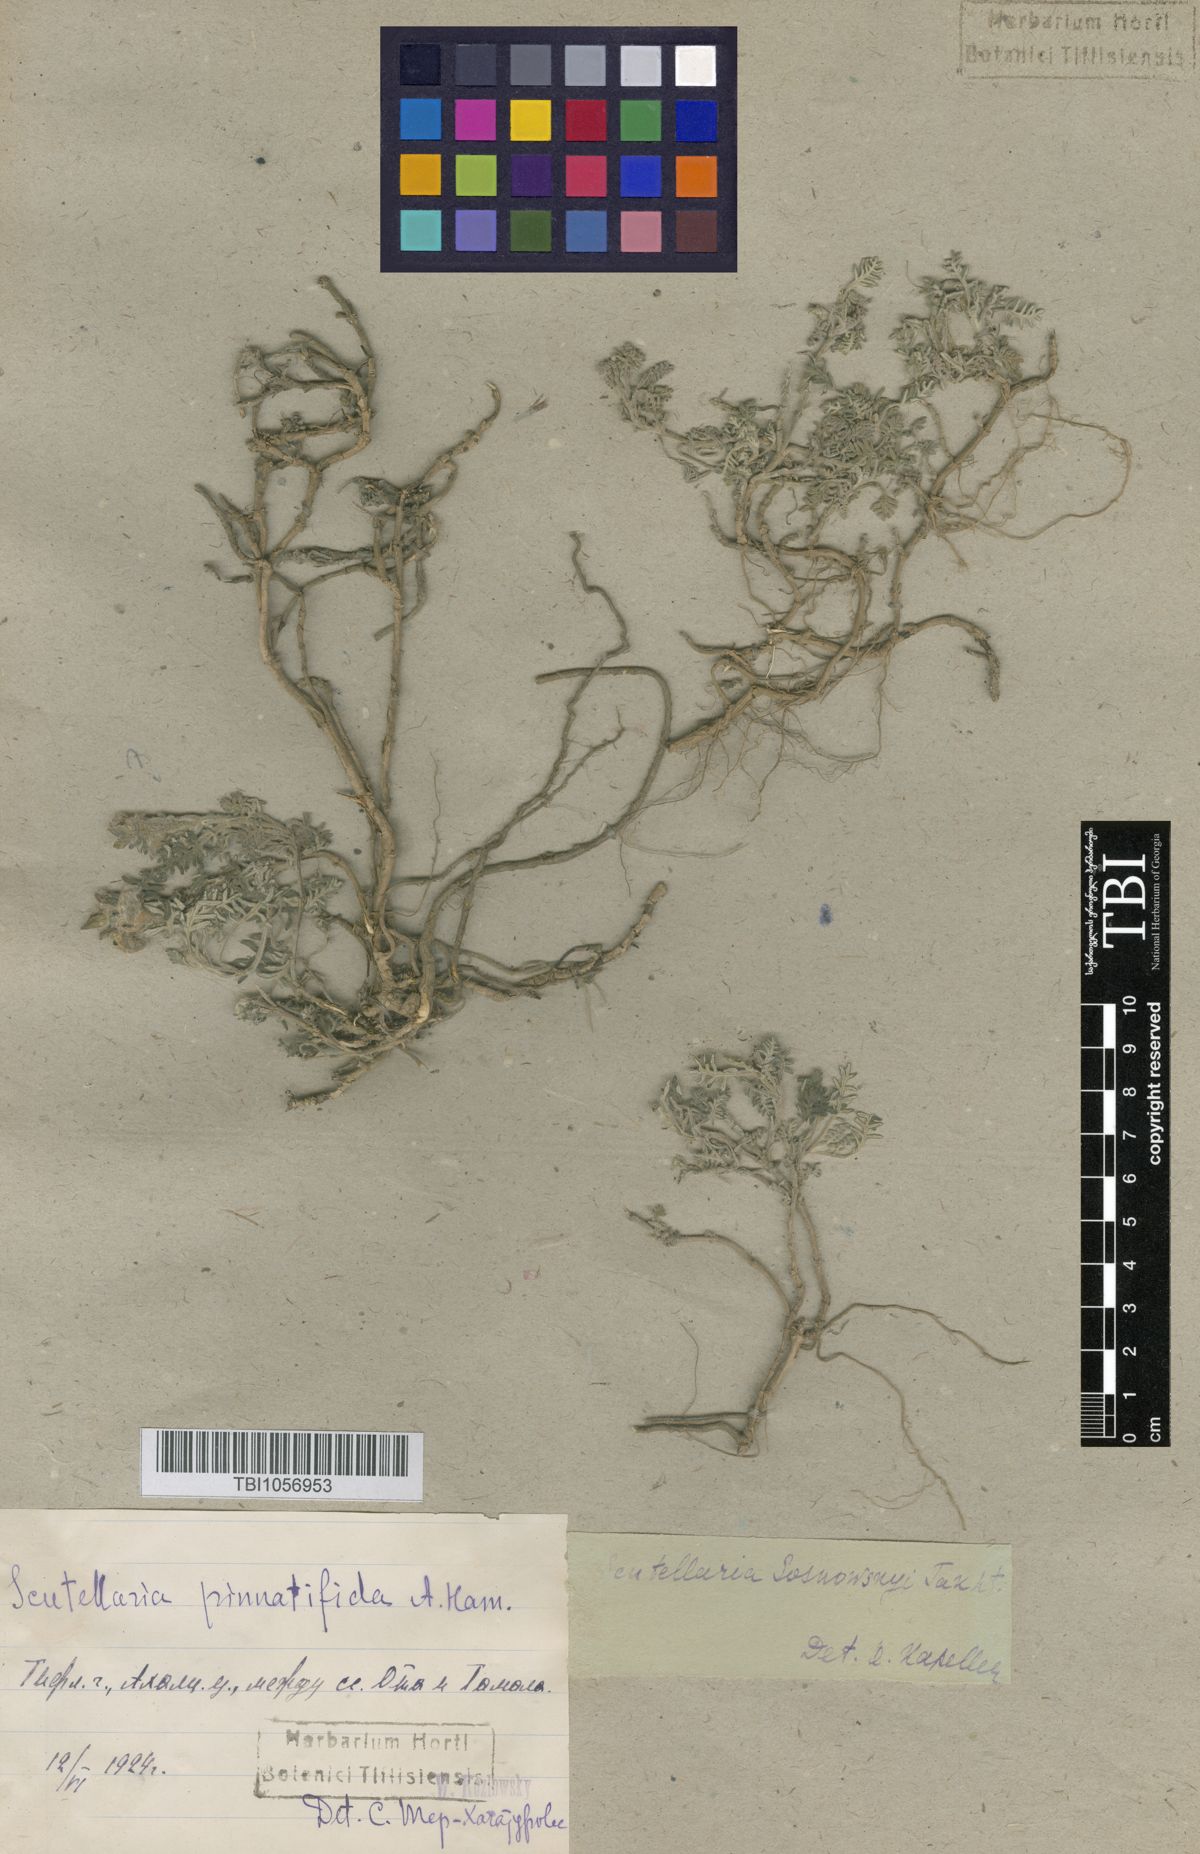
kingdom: Plantae
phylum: Tracheophyta
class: Magnoliopsida
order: Lamiales
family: Lamiaceae
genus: Scutellaria
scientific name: Scutellaria sosnowskyi
